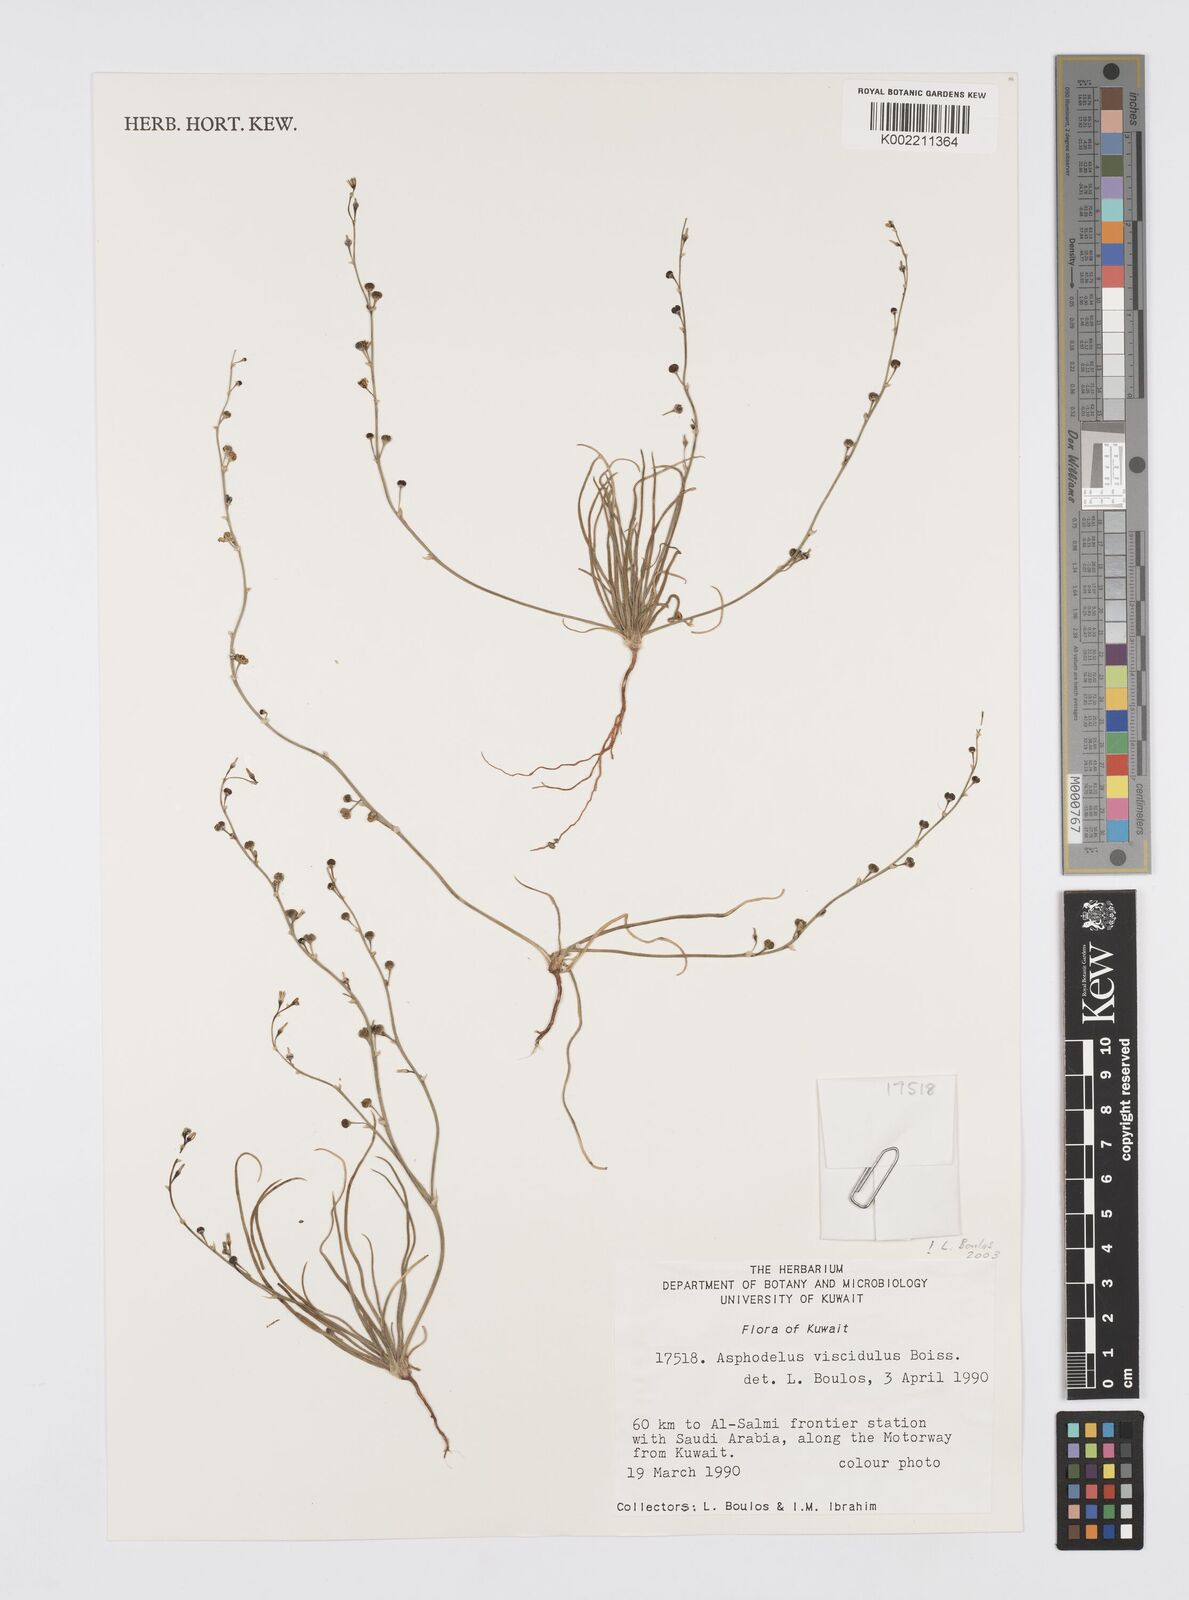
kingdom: Plantae
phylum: Tracheophyta
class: Liliopsida
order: Asparagales
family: Asphodelaceae
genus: Asphodelus
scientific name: Asphodelus viscidulus
